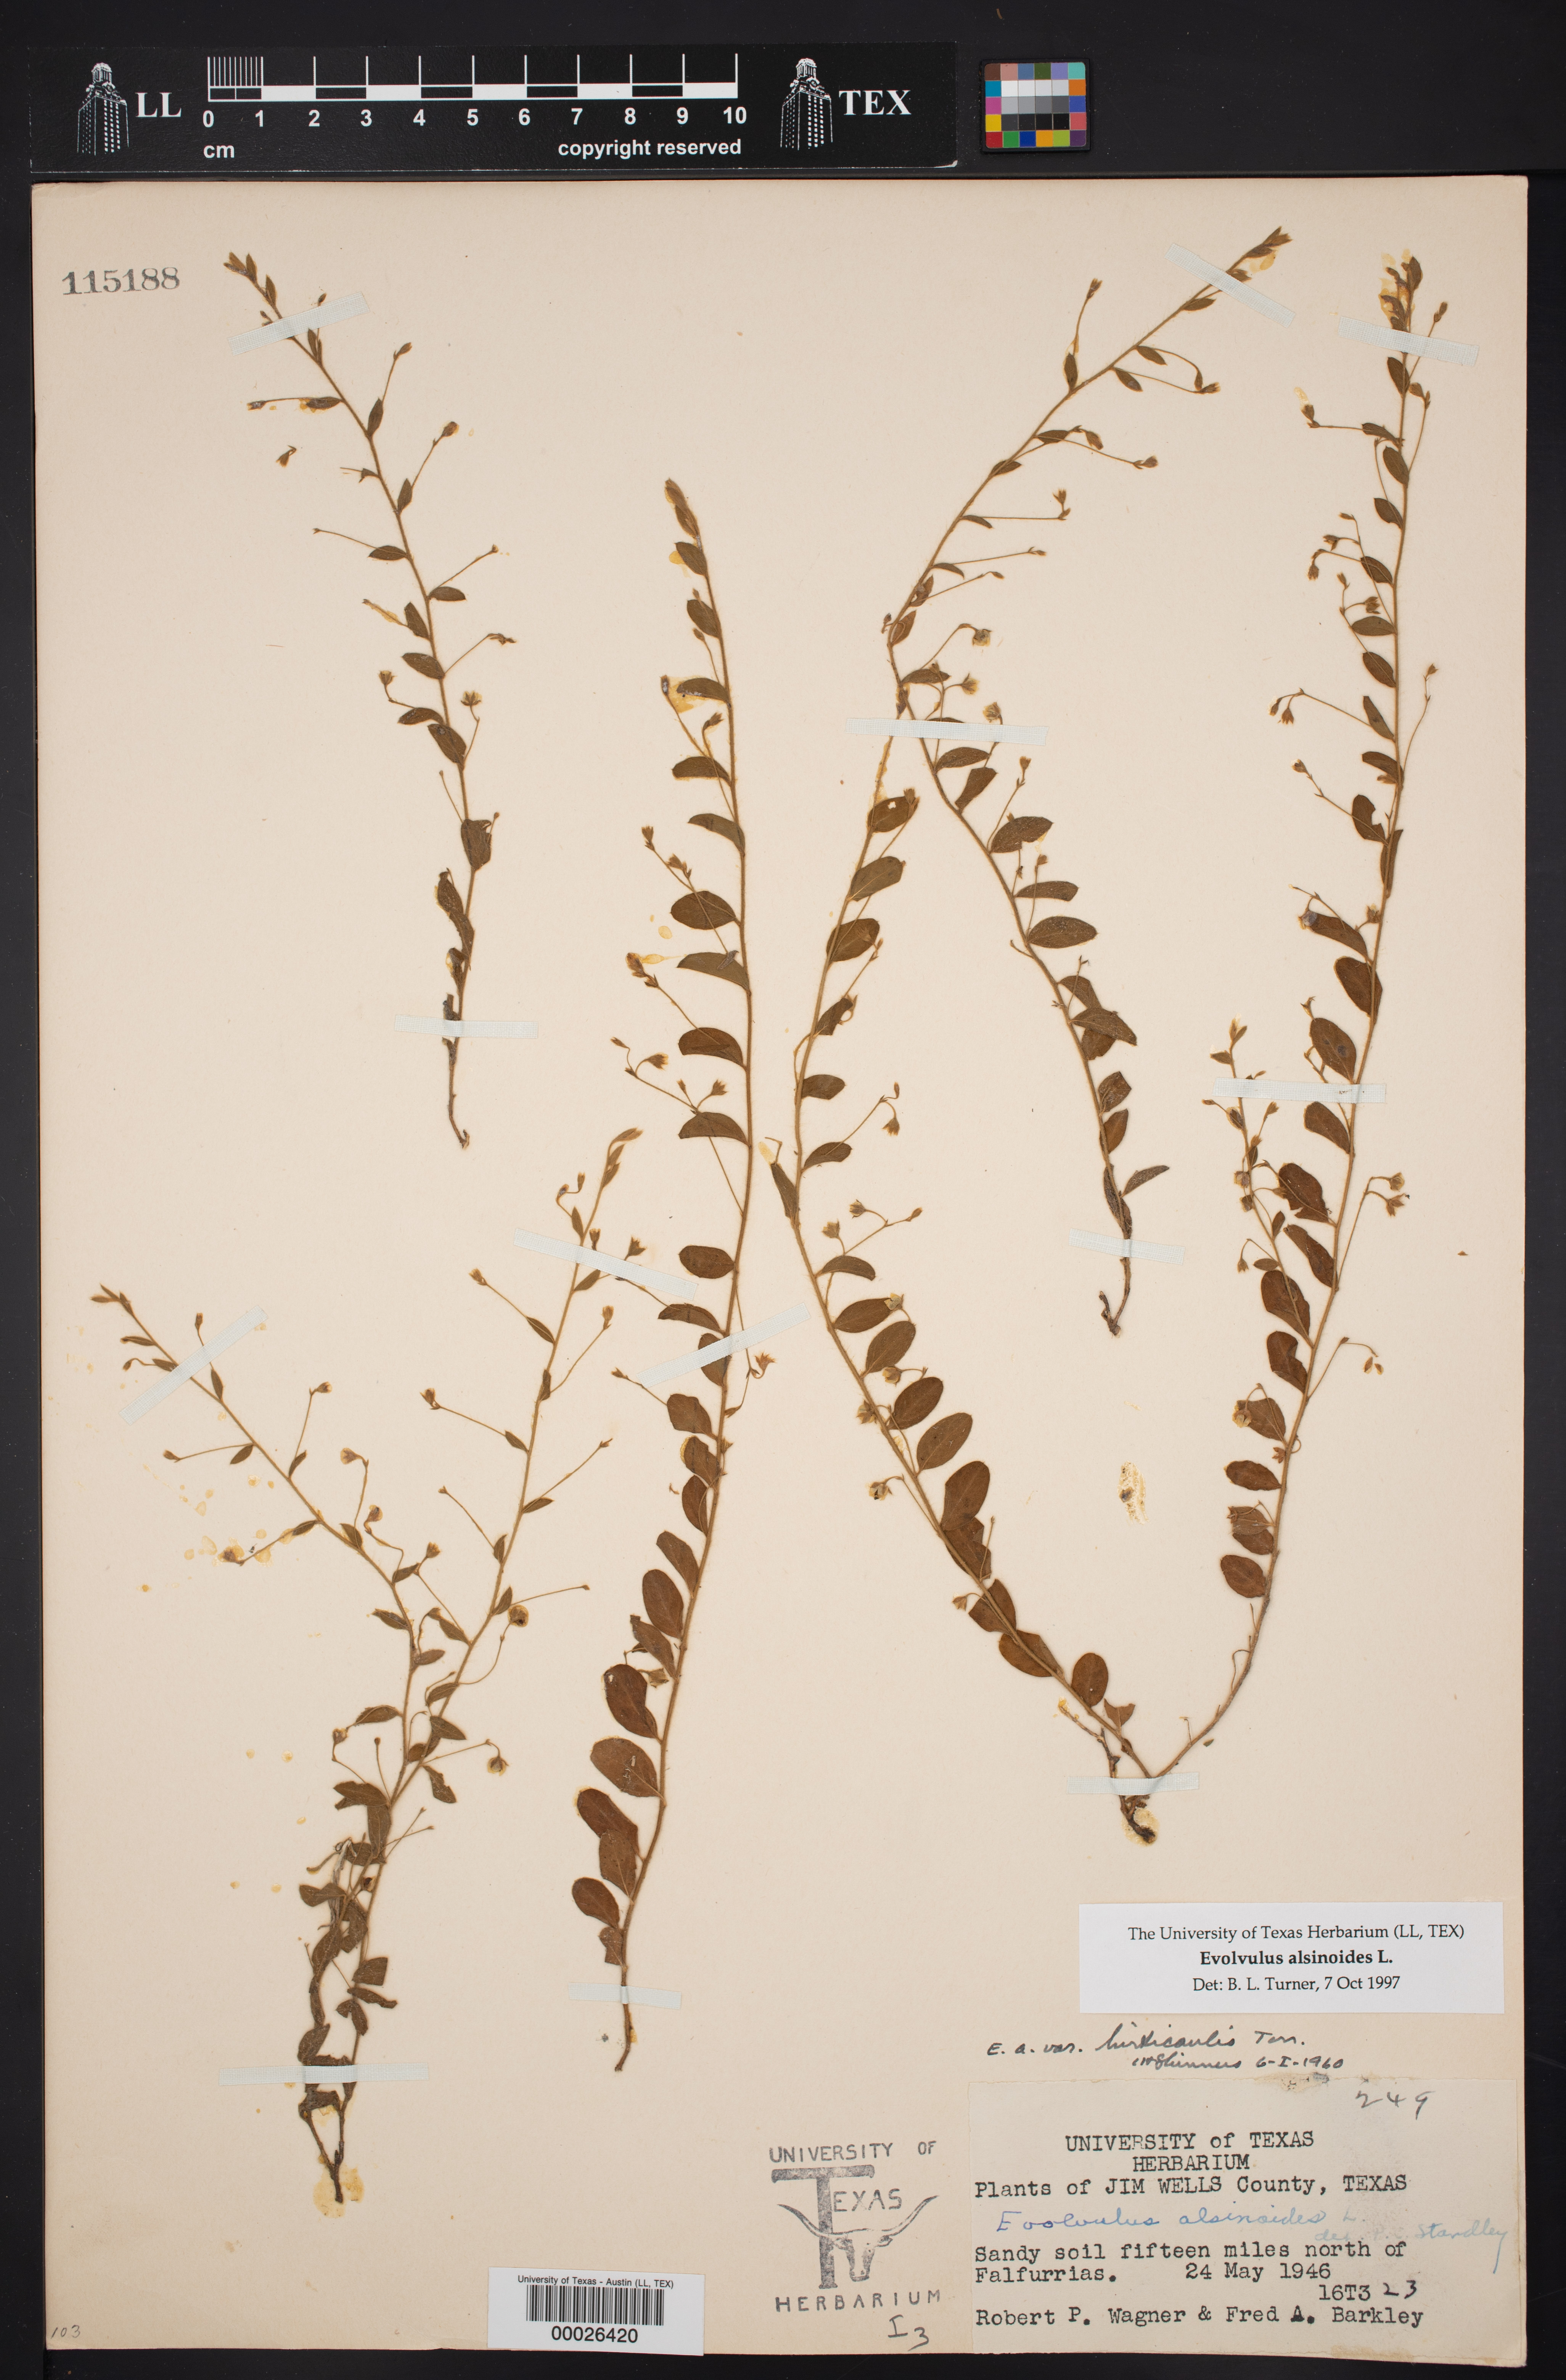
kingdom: Plantae
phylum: Tracheophyta
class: Magnoliopsida
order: Solanales
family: Convolvulaceae
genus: Evolvulus
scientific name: Evolvulus alsinoides
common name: Slender dwarf morning-glory
